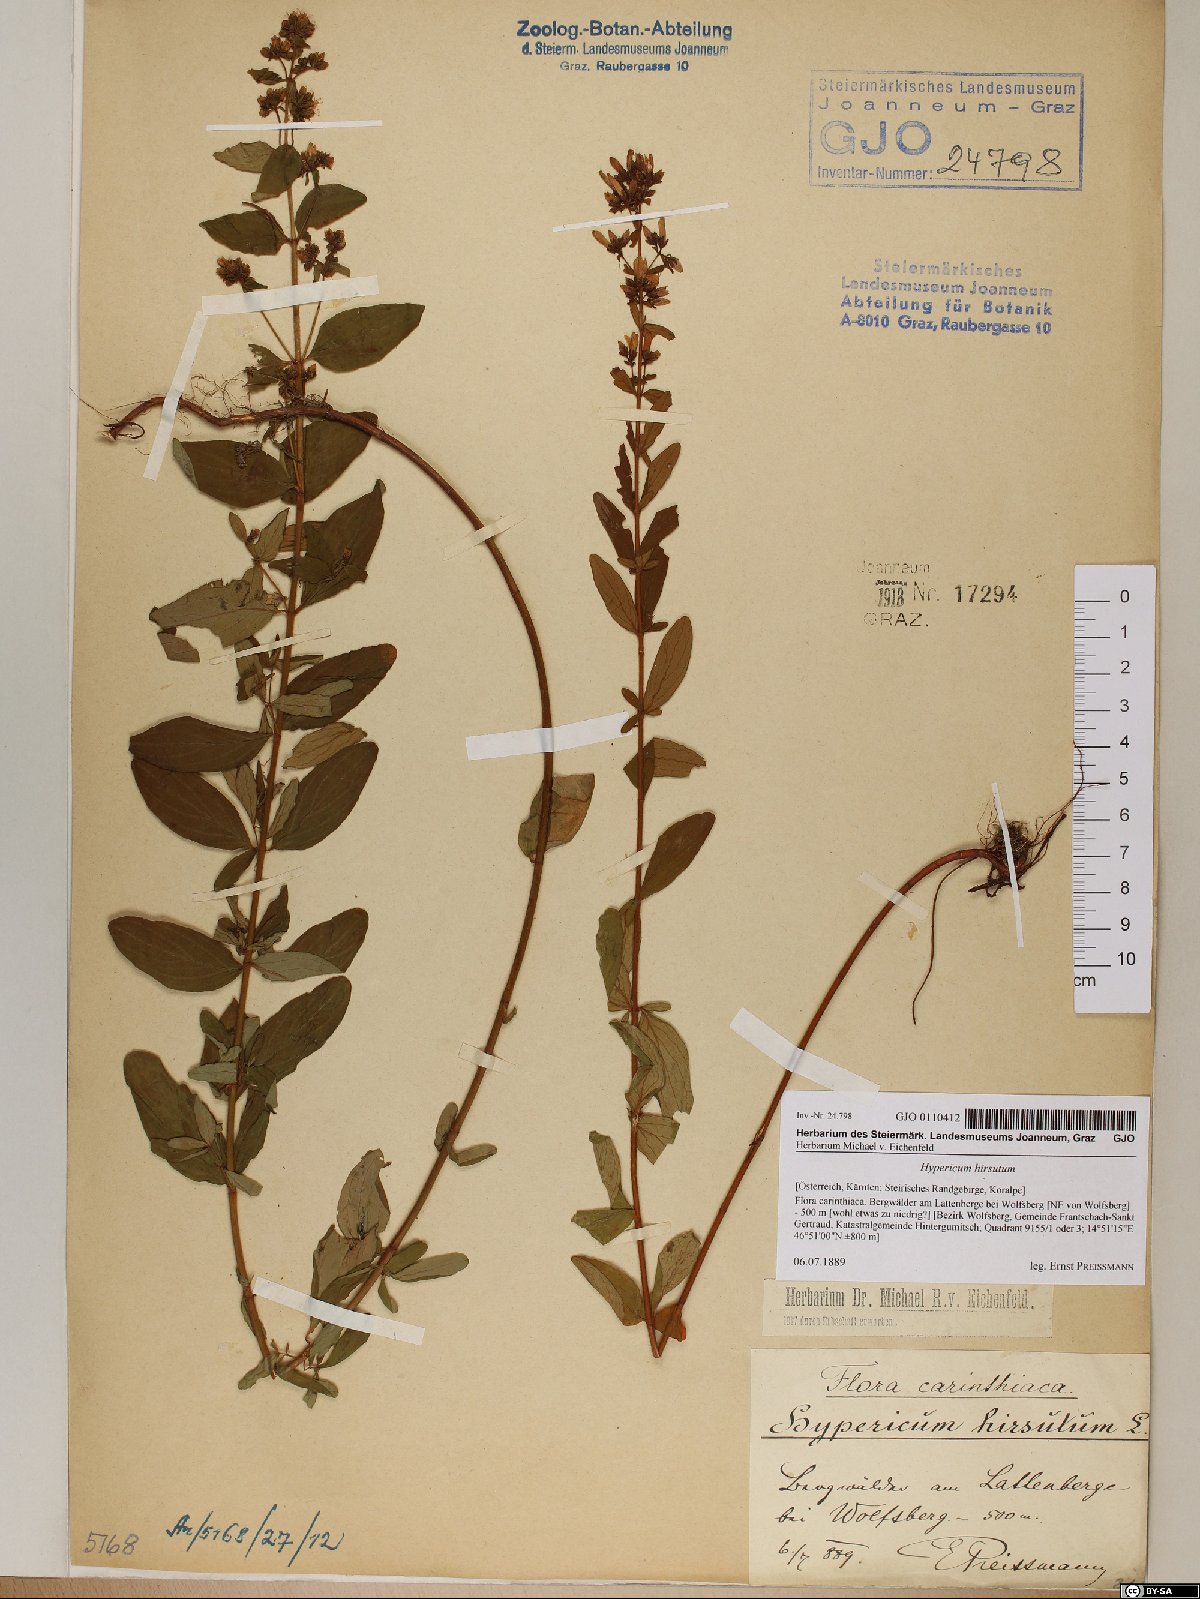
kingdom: Plantae
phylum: Tracheophyta
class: Magnoliopsida
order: Malpighiales
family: Hypericaceae
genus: Hypericum
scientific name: Hypericum hirsutum
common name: Hairy st. john's-wort
